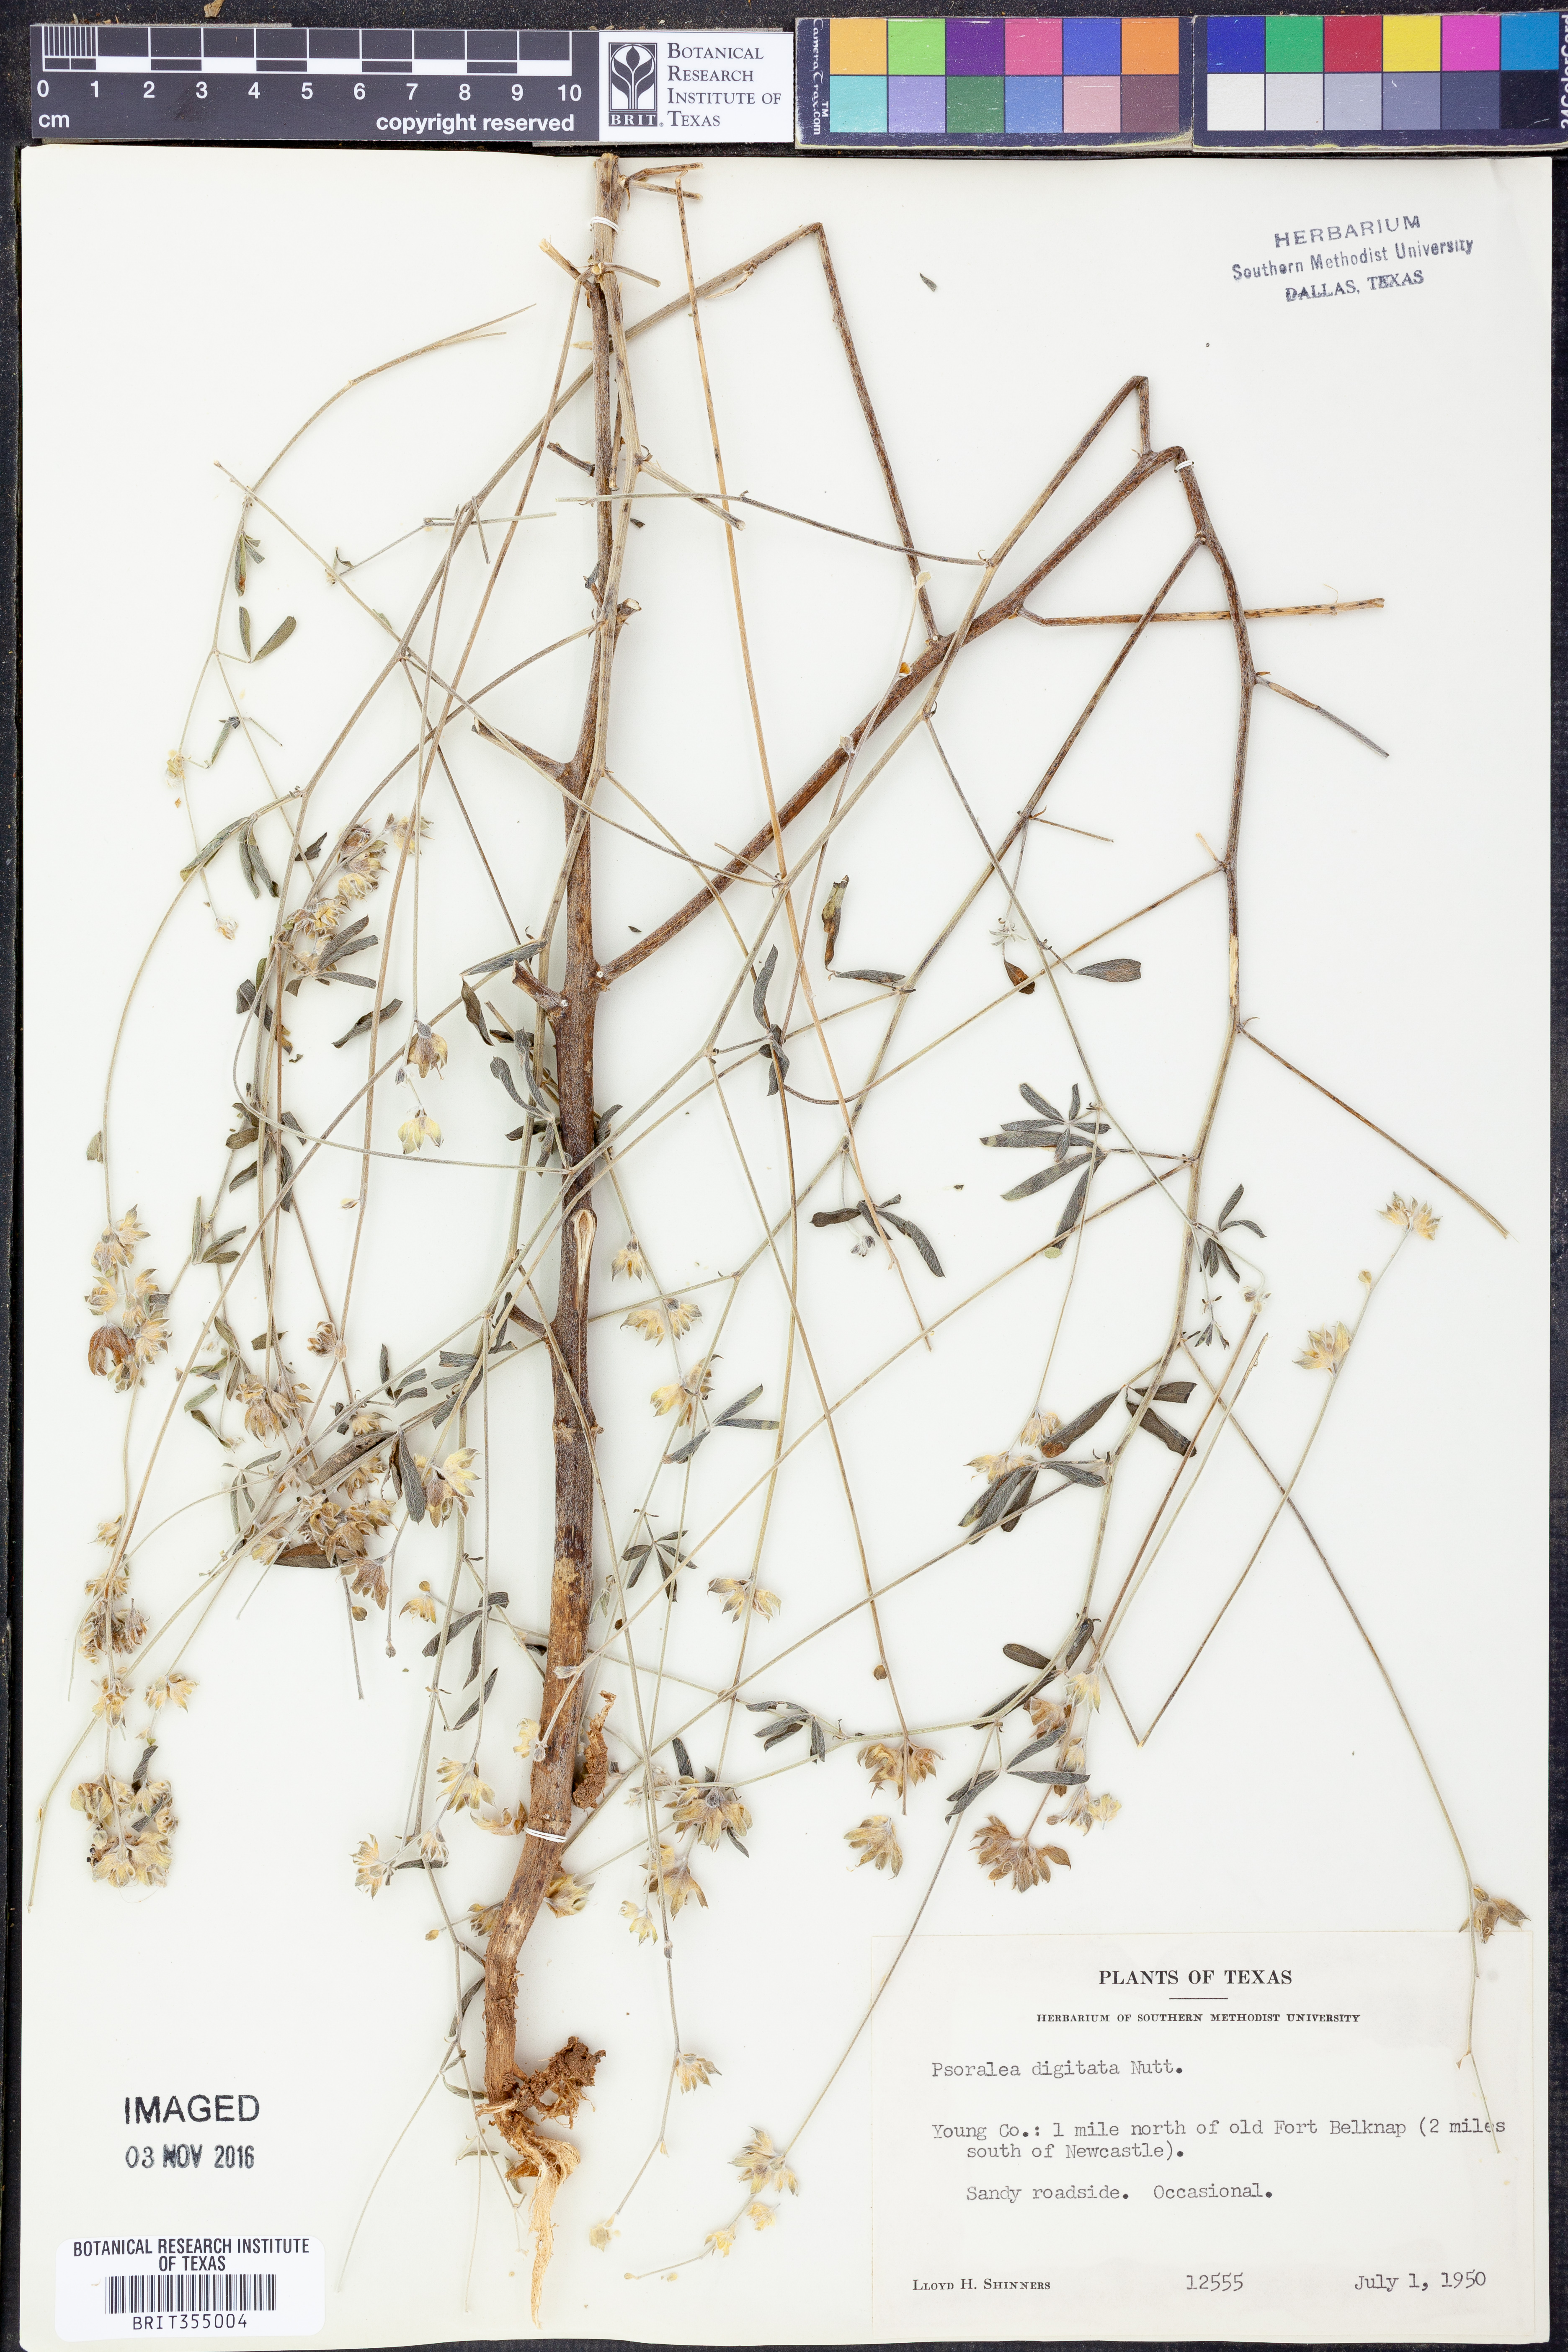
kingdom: Plantae
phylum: Tracheophyta
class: Magnoliopsida
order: Fabales
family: Fabaceae
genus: Pediomelum
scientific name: Pediomelum digitatum
